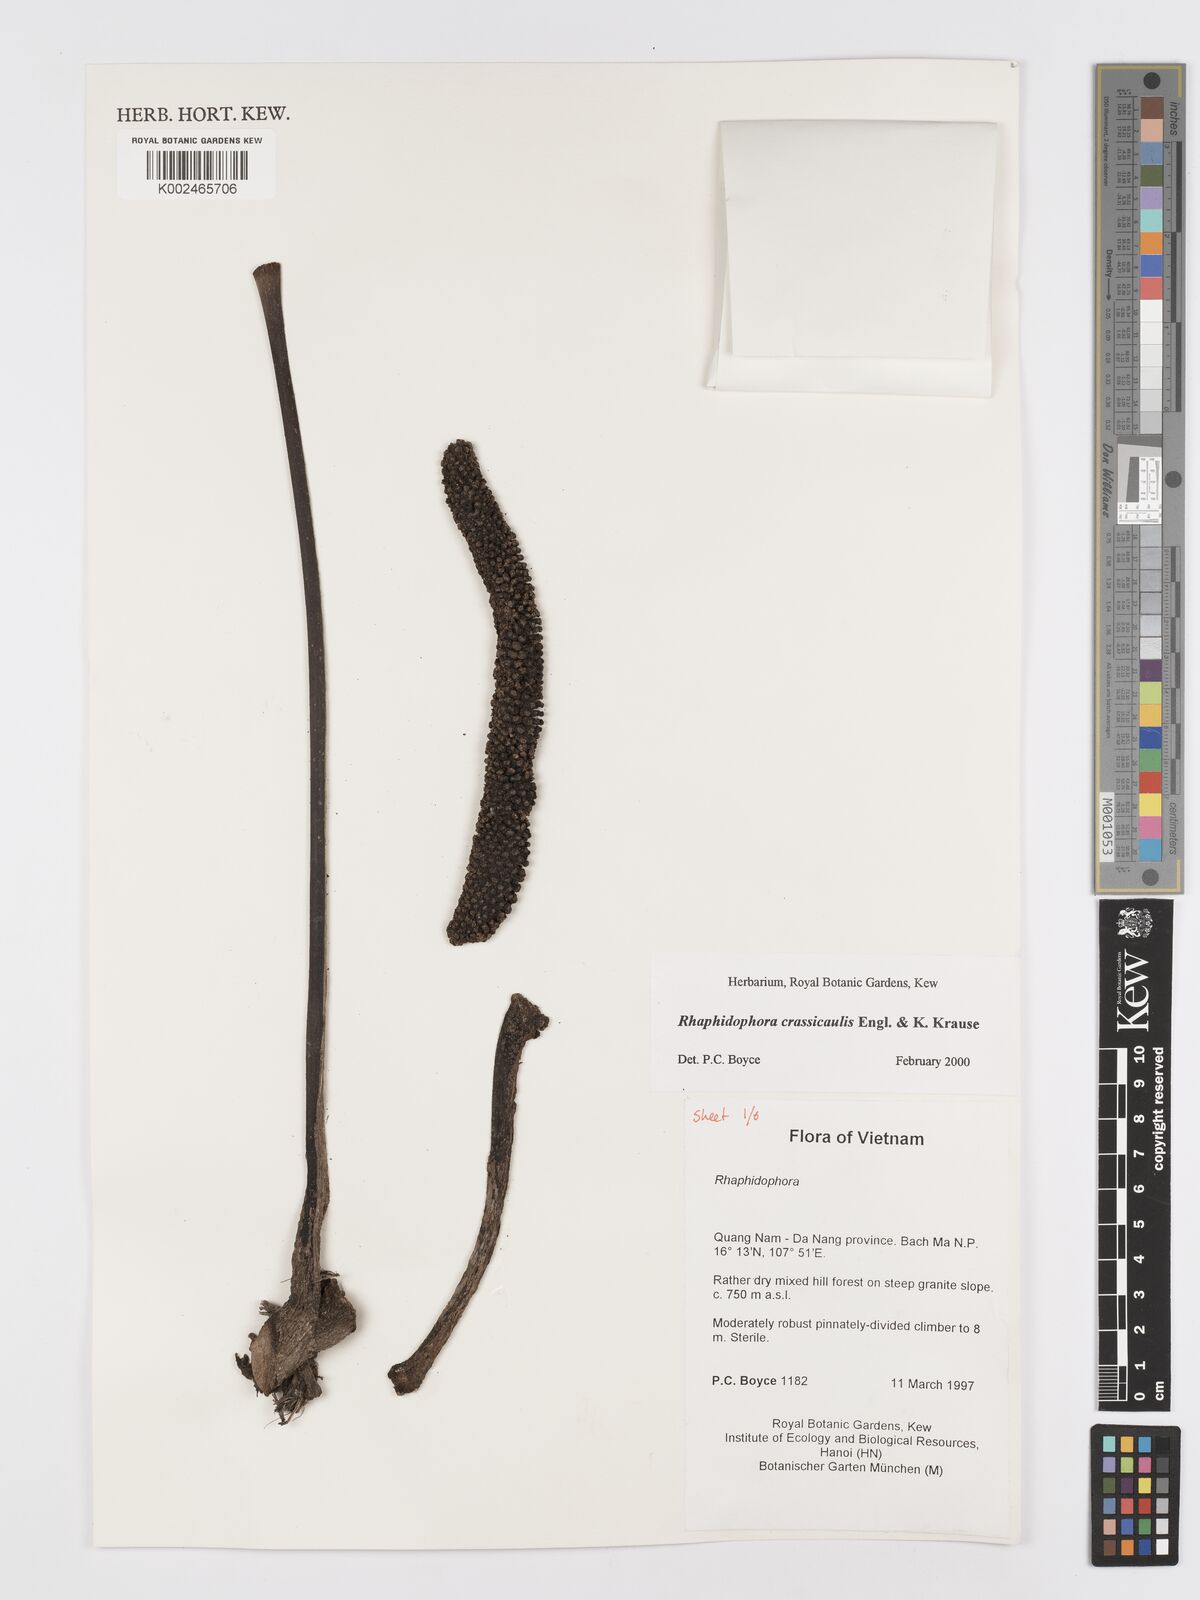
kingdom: Plantae
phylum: Tracheophyta
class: Liliopsida
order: Alismatales
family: Araceae
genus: Rhaphidophora
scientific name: Rhaphidophora crassicaulis
